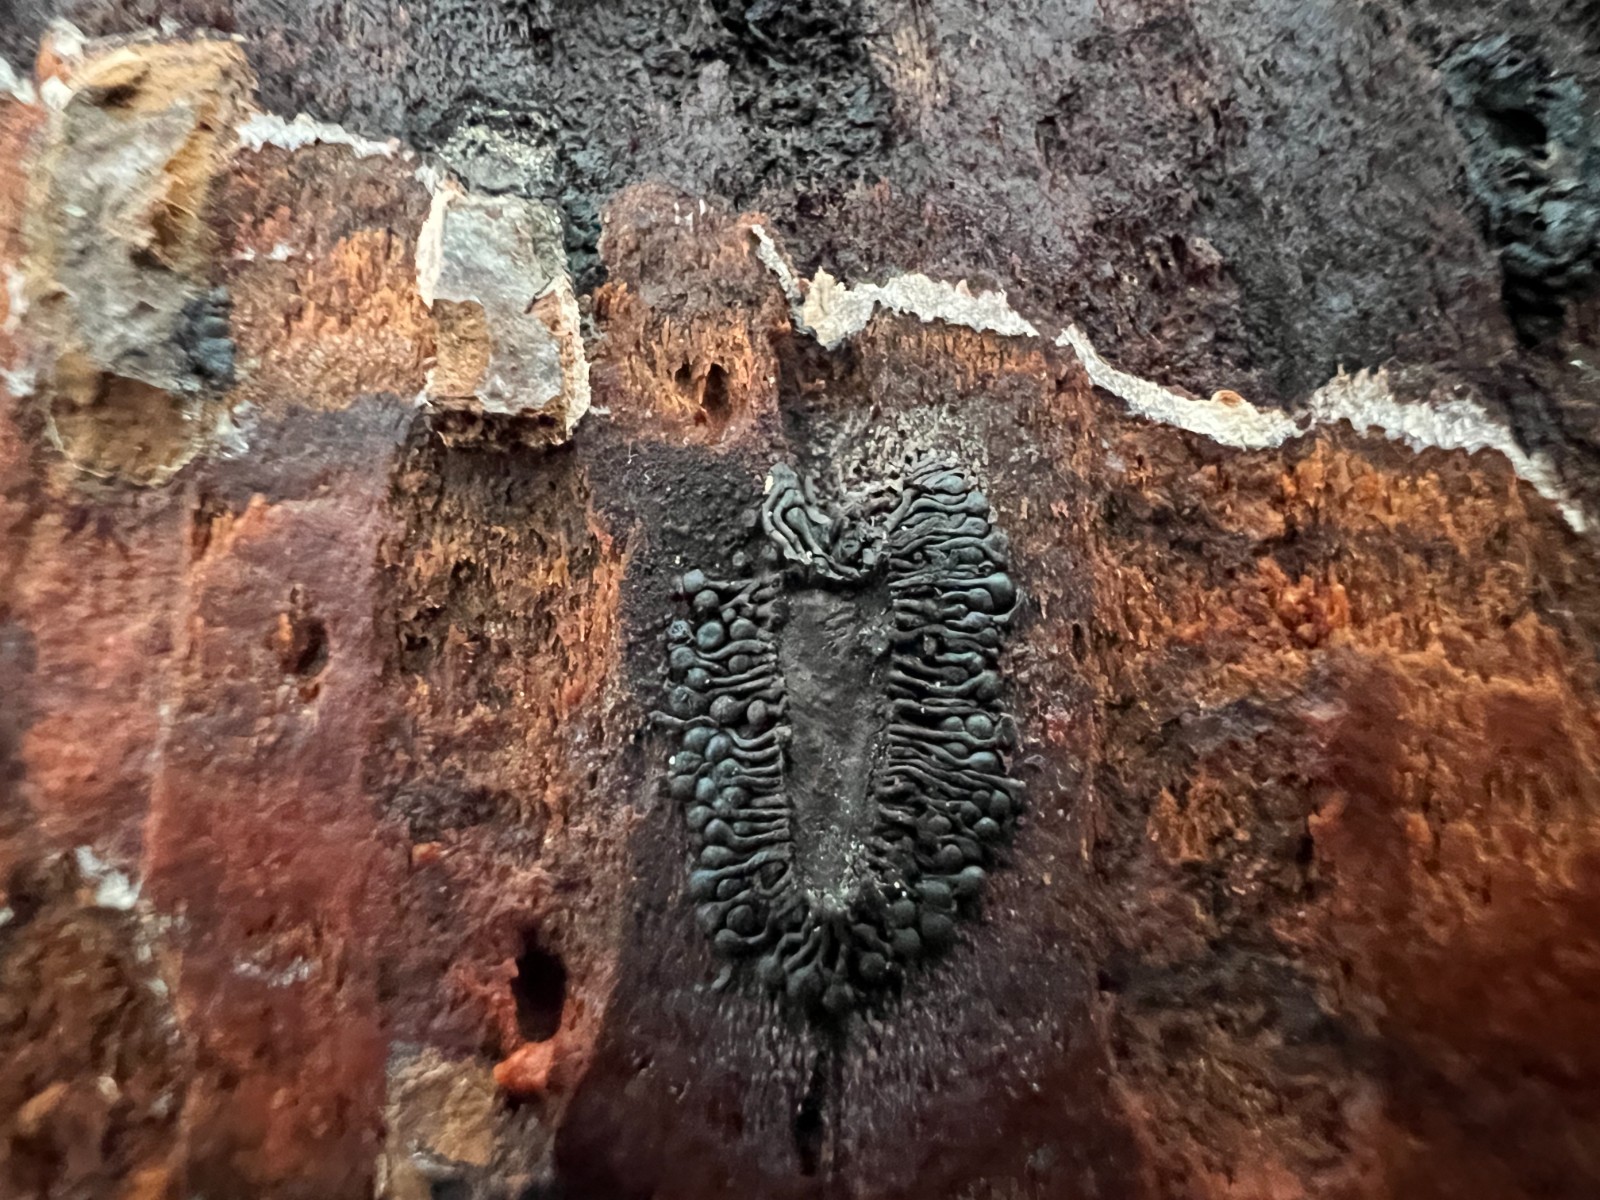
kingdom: Fungi
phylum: Ascomycota
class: Sordariomycetes
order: Calosphaeriales
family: Calosphaeriaceae
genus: Calosphaeria
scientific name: Calosphaeria pulchella
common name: smuk slyngkerne
